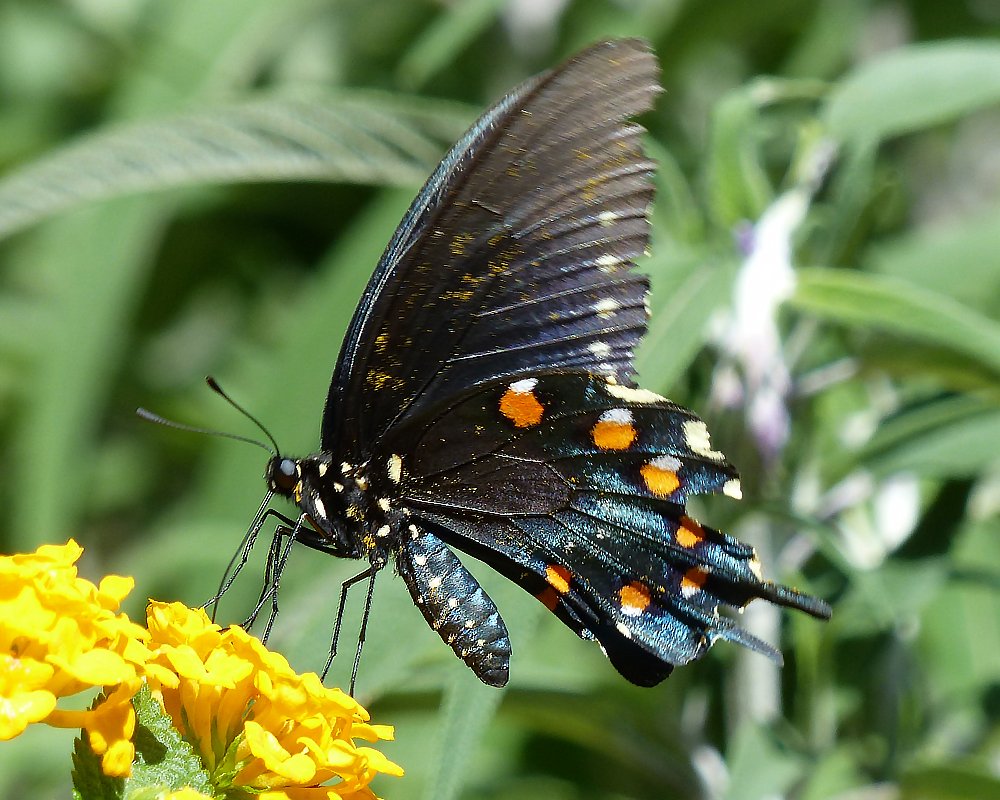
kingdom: Animalia
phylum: Arthropoda
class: Insecta
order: Lepidoptera
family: Papilionidae
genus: Battus
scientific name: Battus philenor
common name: Pipevine Swallowtail
